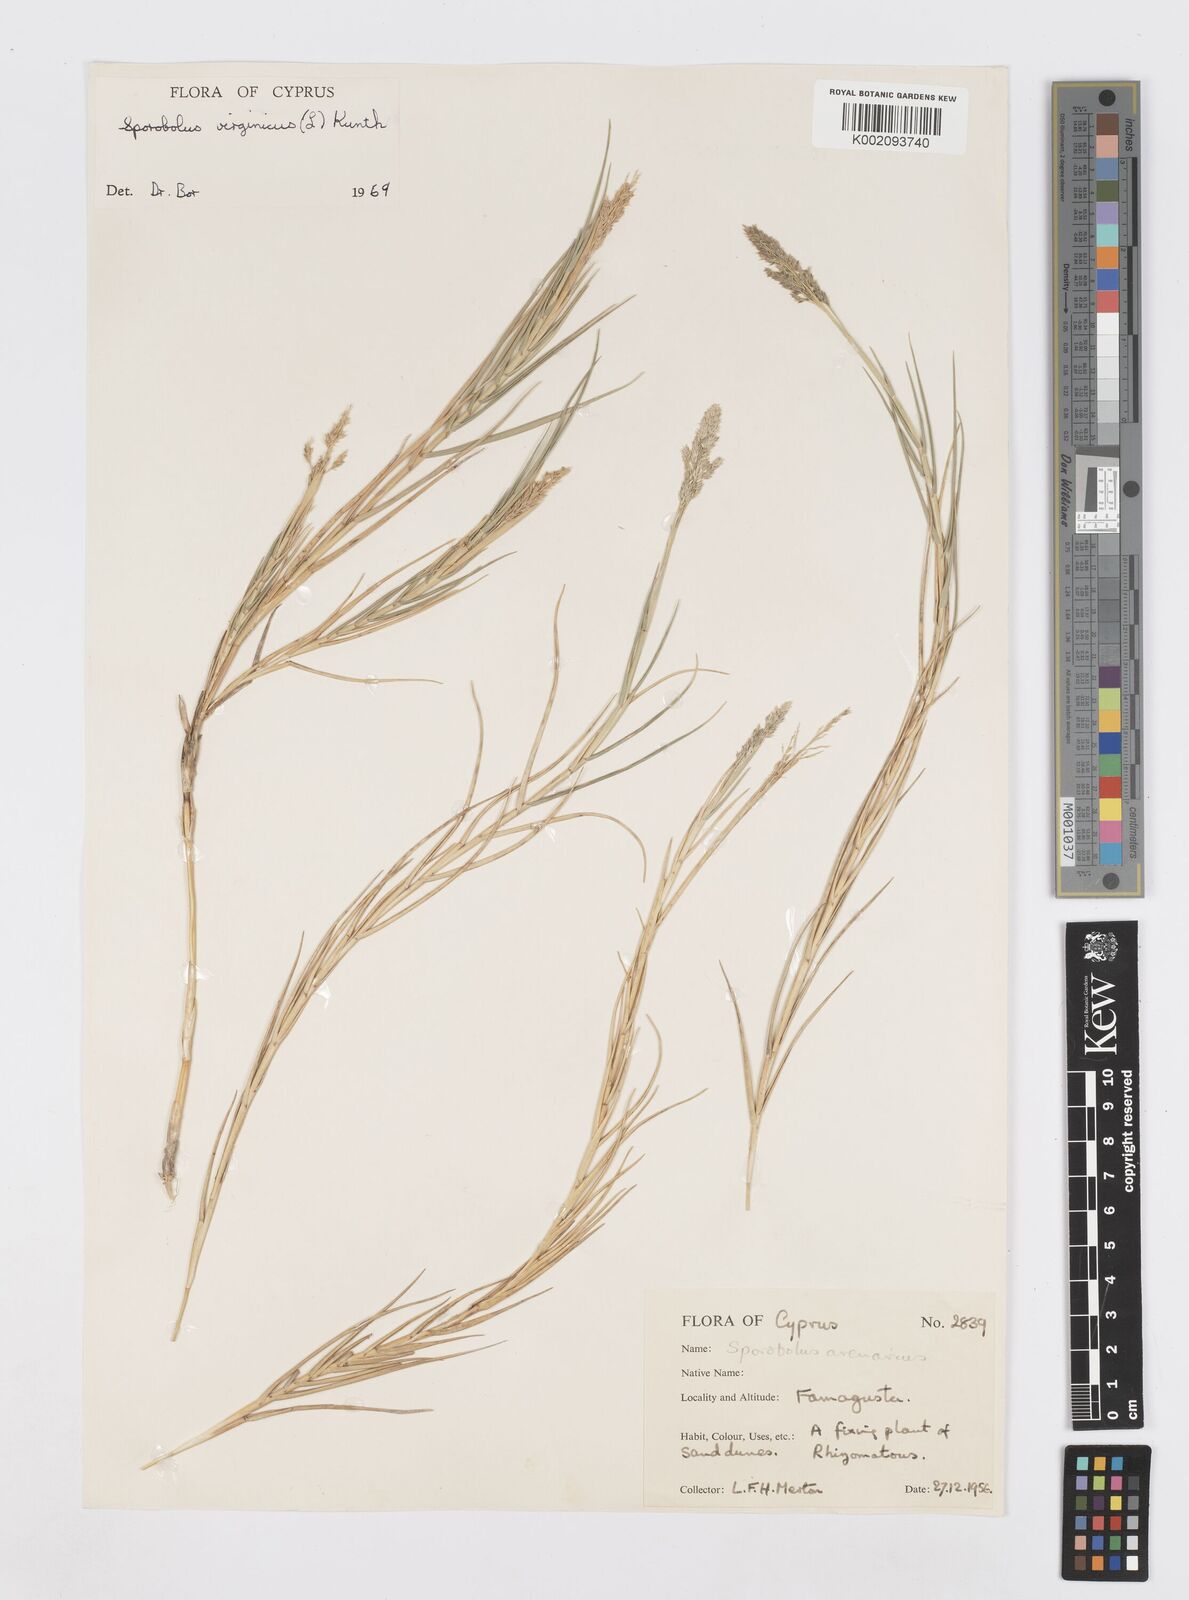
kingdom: Plantae
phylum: Tracheophyta
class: Liliopsida
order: Poales
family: Poaceae
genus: Sporobolus
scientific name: Sporobolus pungens
